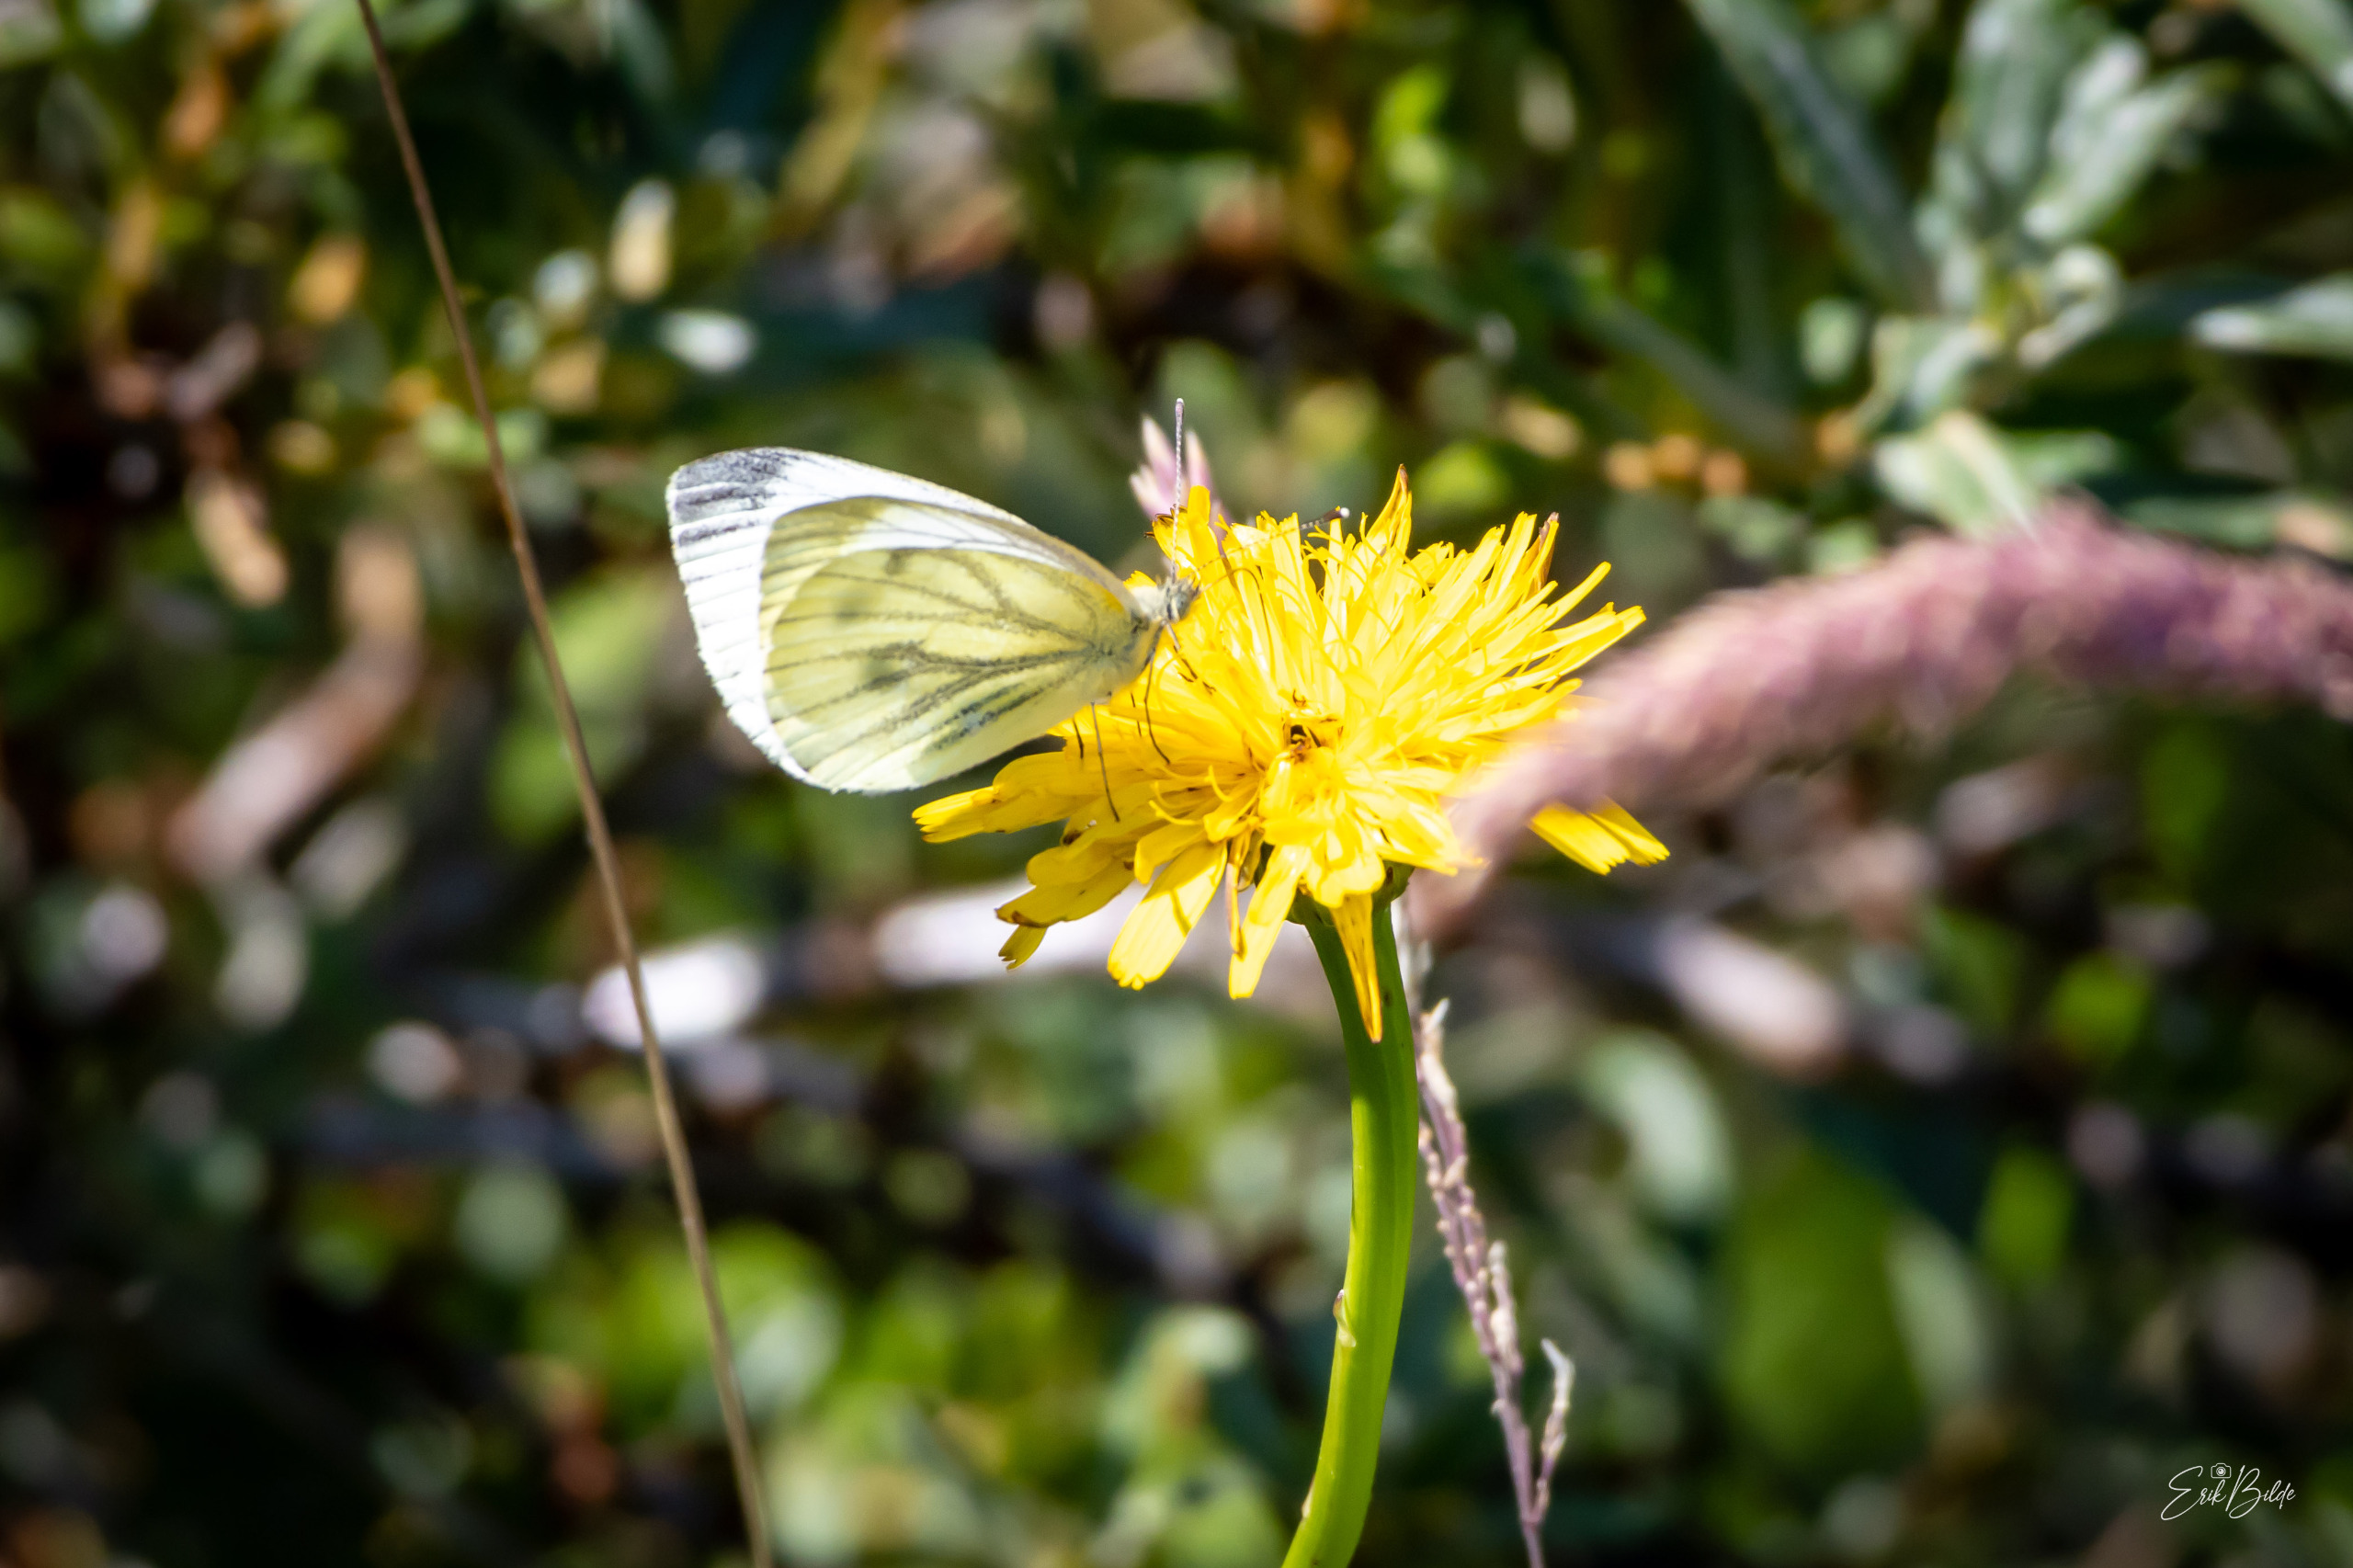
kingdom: Animalia
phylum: Arthropoda
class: Insecta
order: Lepidoptera
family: Pieridae
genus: Pieris
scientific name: Pieris napi
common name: Grønåret kålsommerfugl
